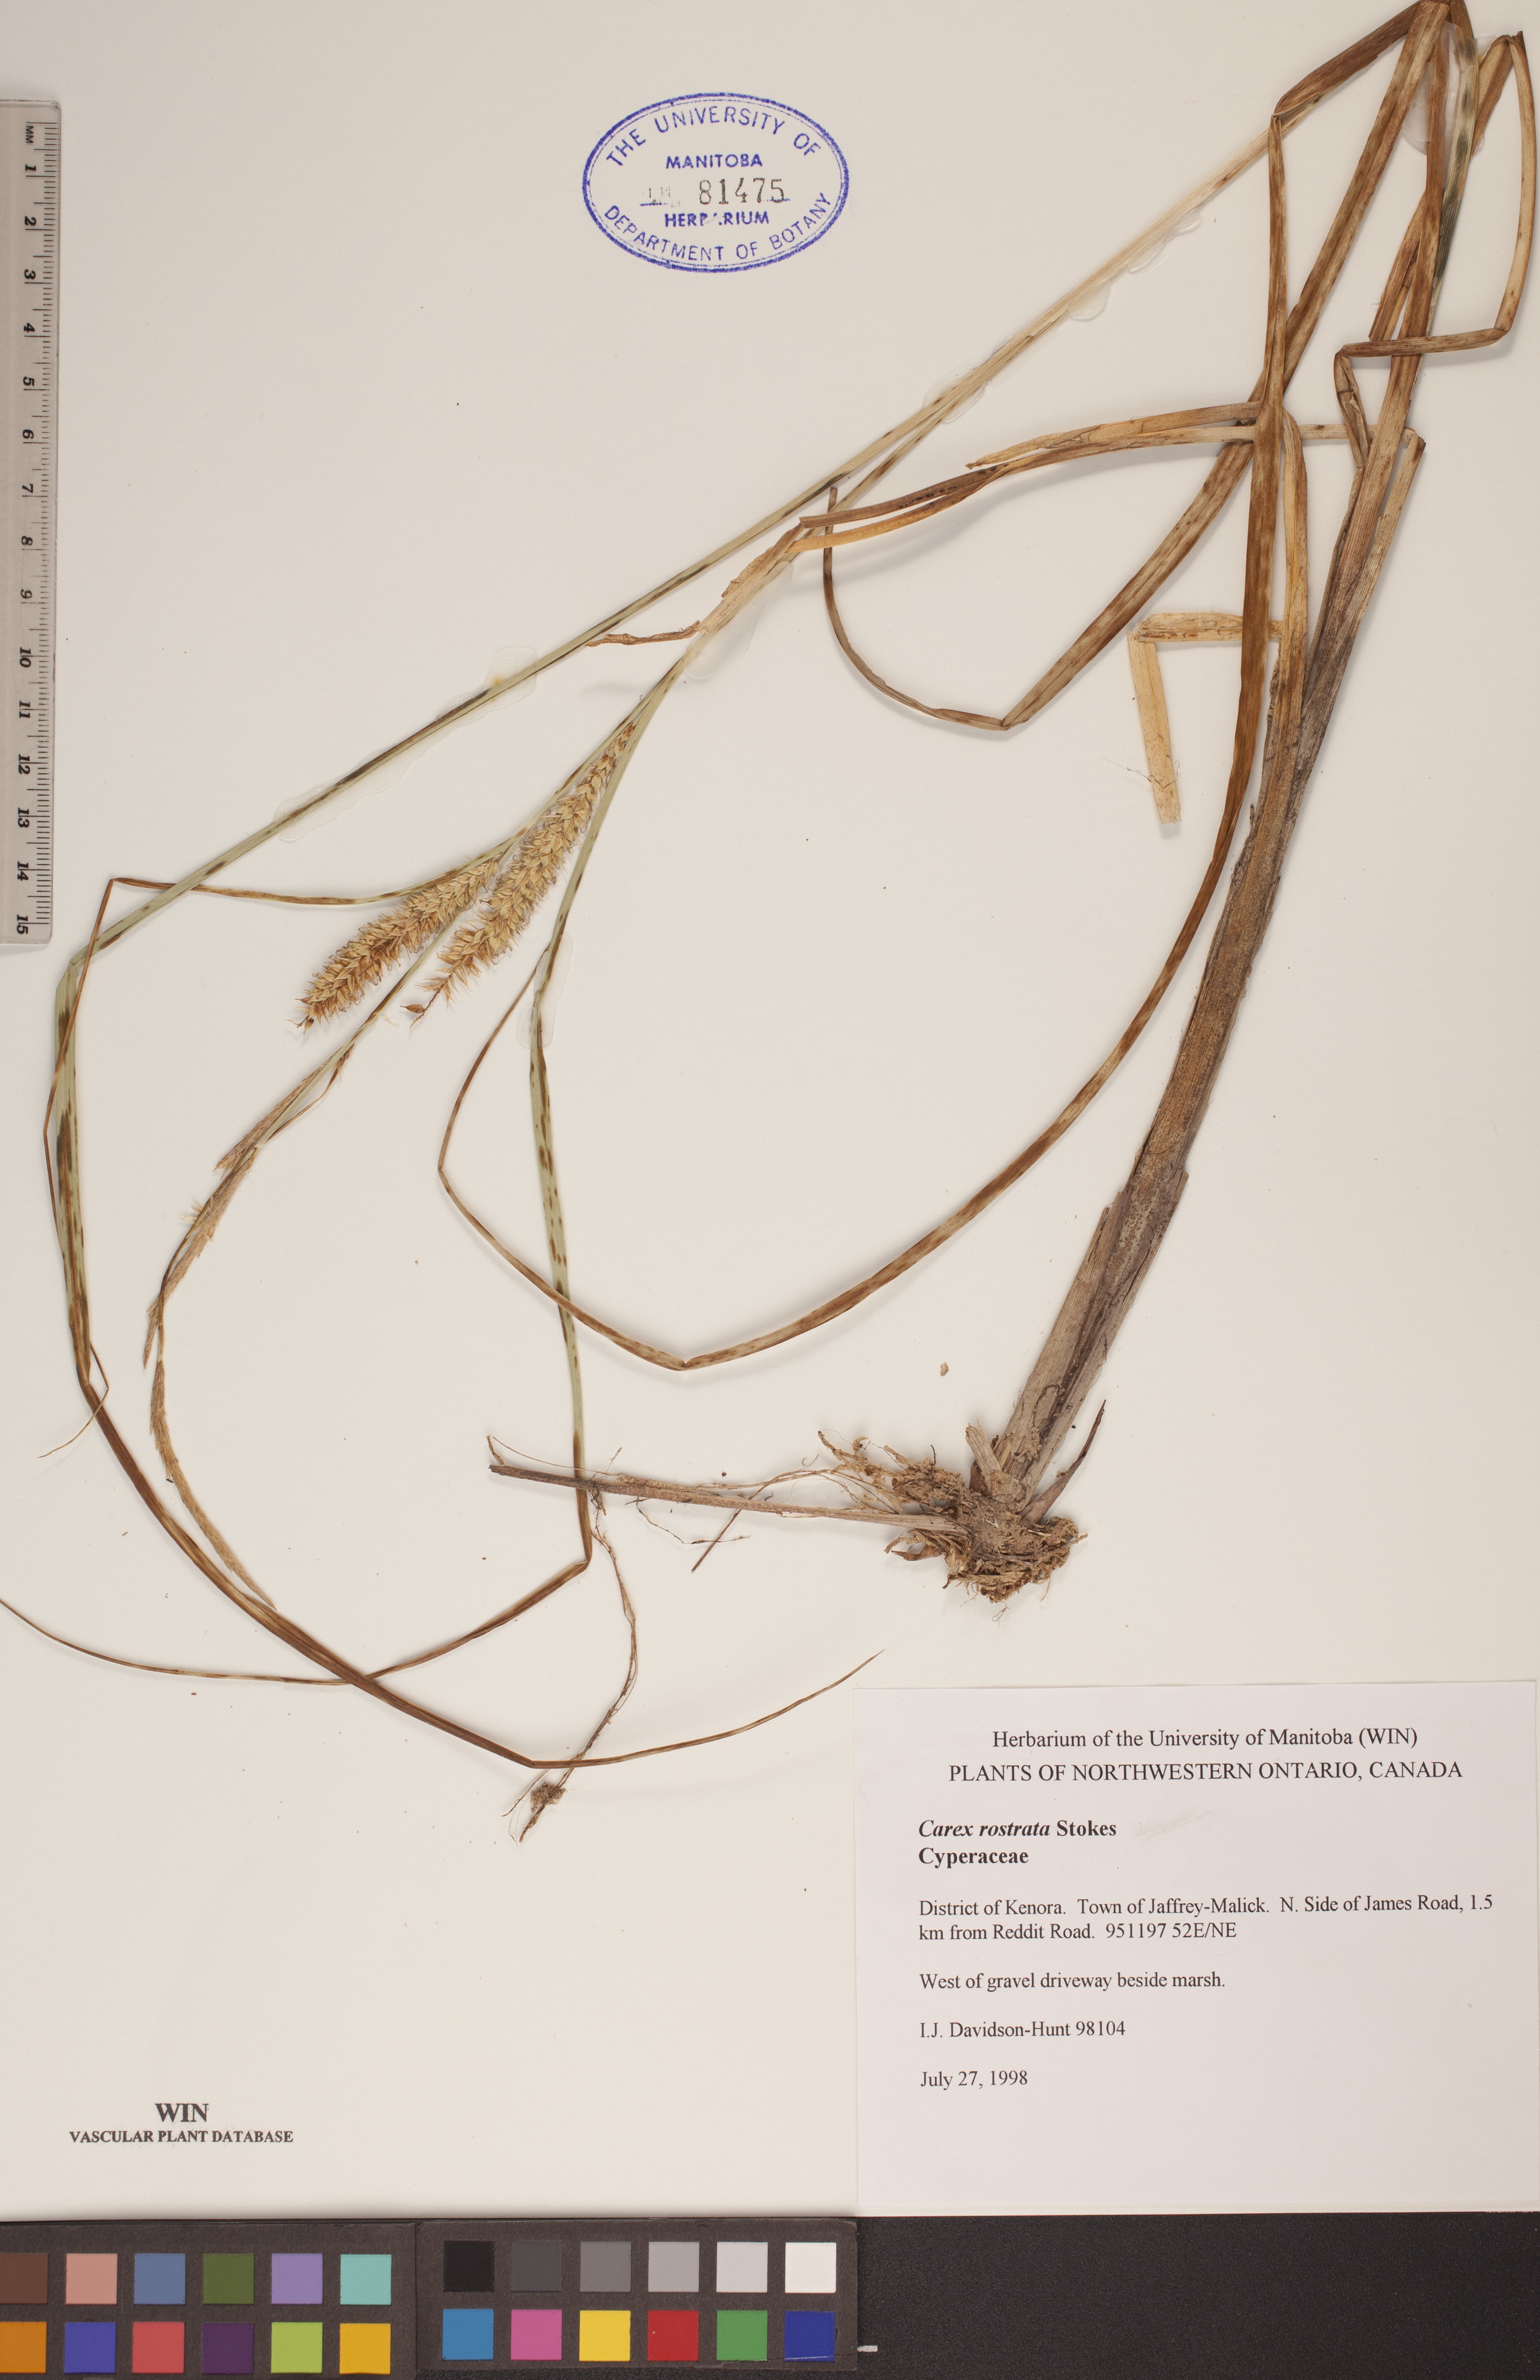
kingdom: Plantae
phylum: Tracheophyta
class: Liliopsida
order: Poales
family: Cyperaceae
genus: Carex
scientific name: Carex rostrata
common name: Bottle sedge
